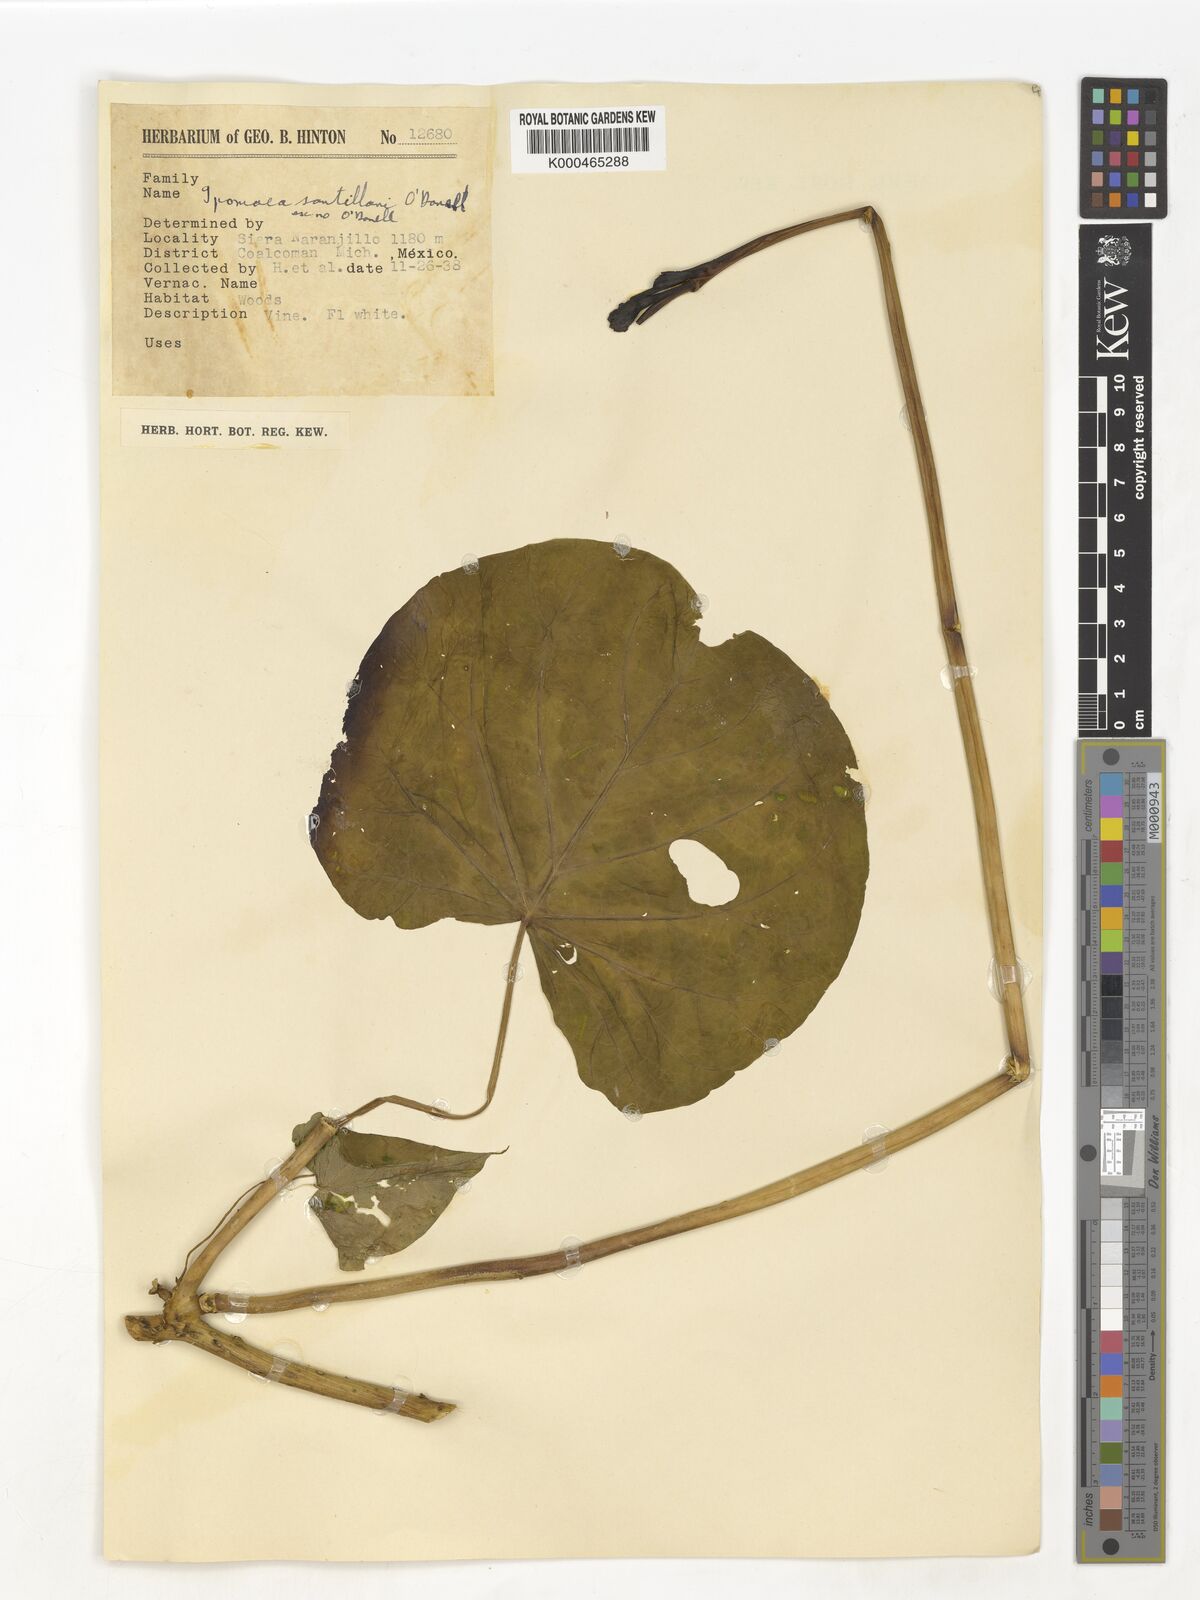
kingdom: Plantae
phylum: Tracheophyta
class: Magnoliopsida
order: Solanales
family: Convolvulaceae
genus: Ipomoea
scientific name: Ipomoea
